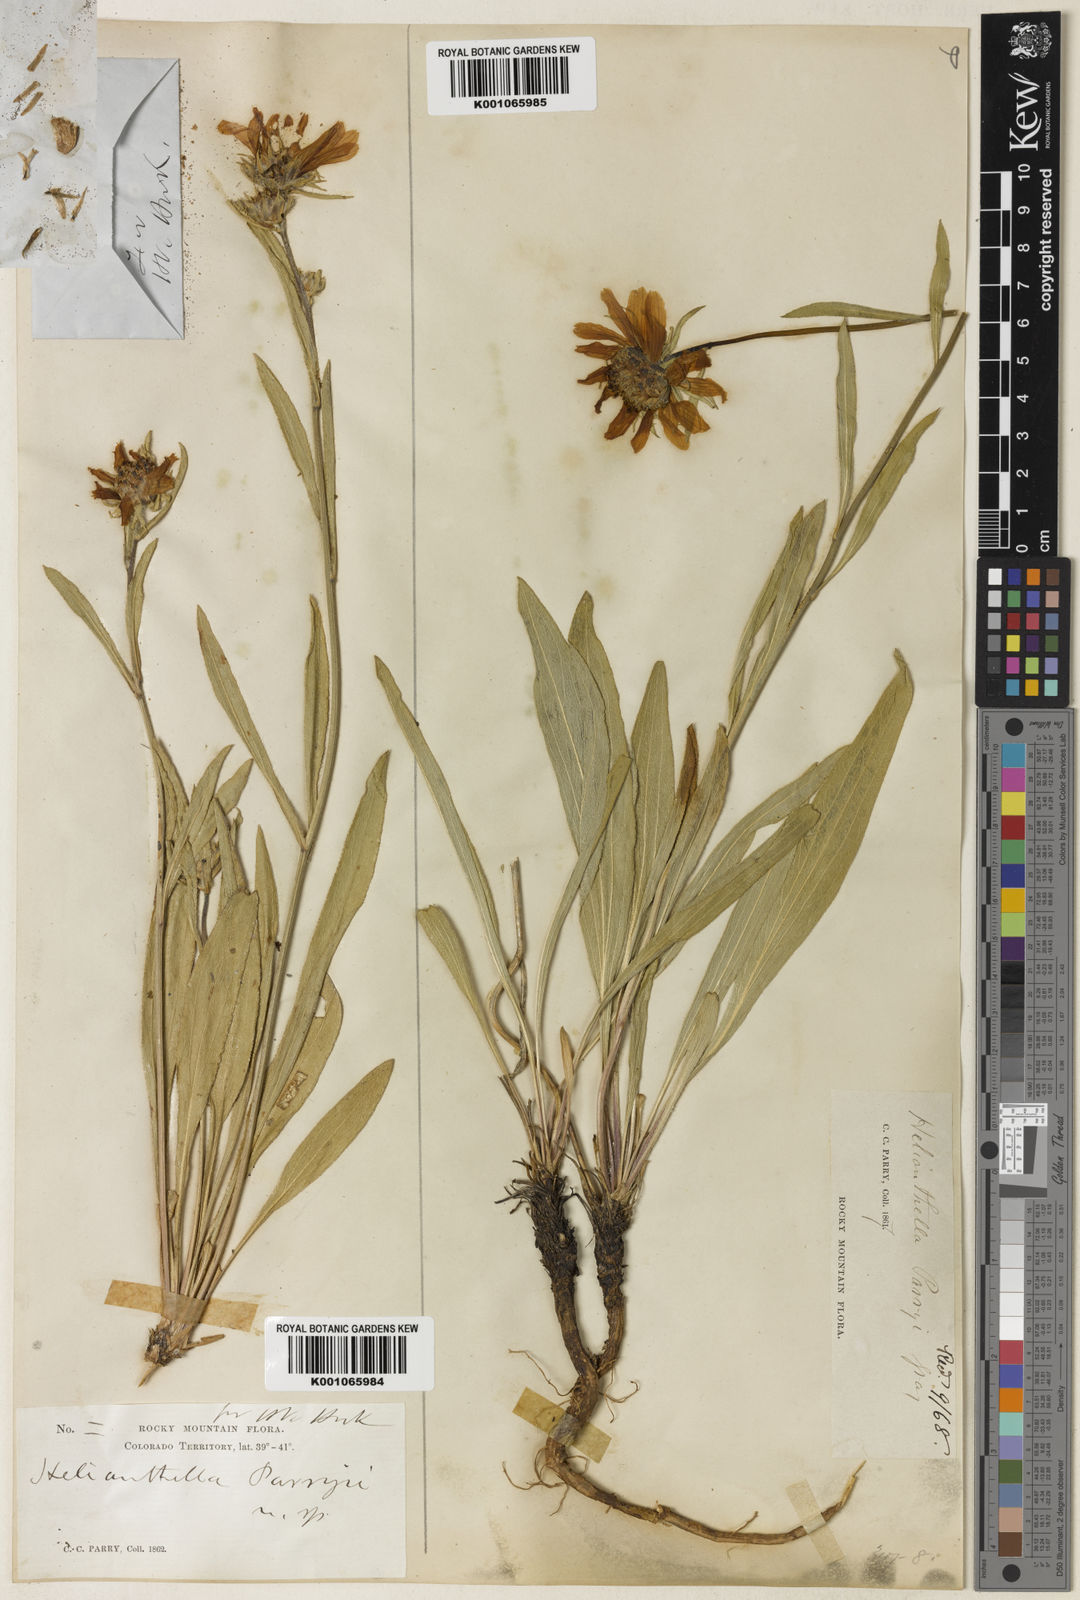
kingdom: Plantae
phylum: Tracheophyta
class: Magnoliopsida
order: Asterales
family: Asteraceae
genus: Helianthella
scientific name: Helianthella parryi
